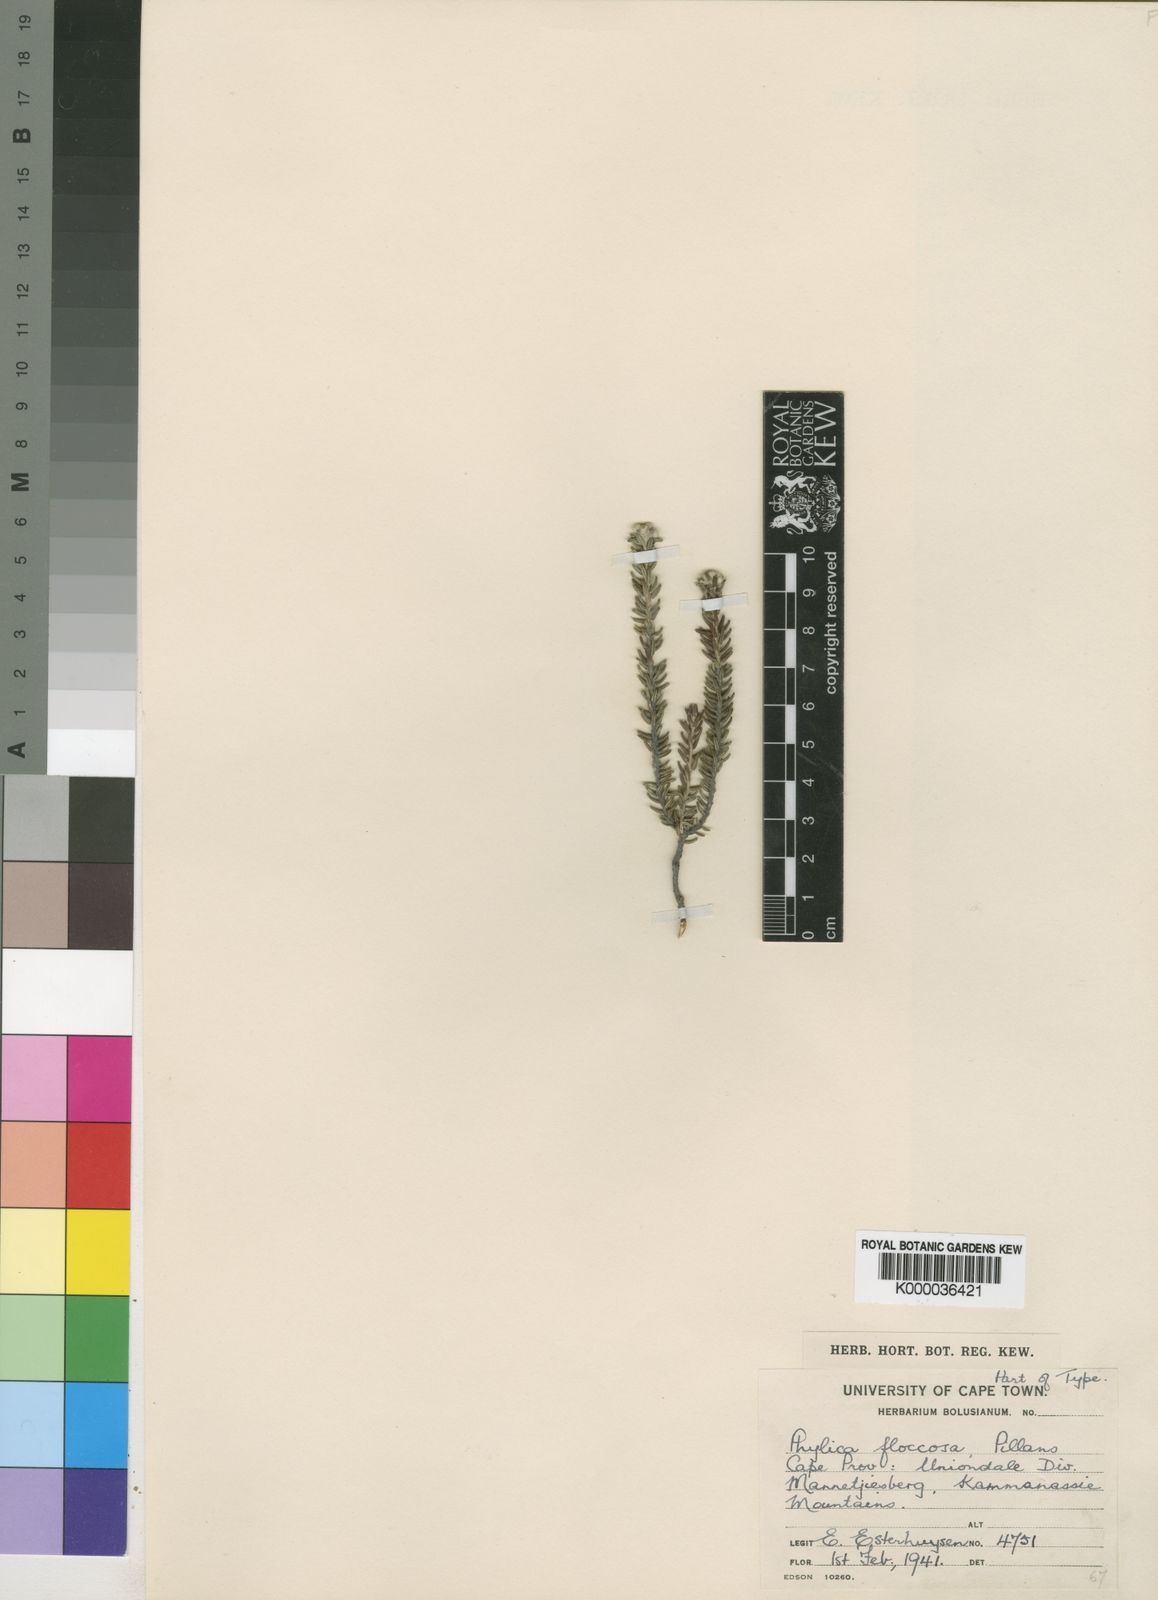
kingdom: Plantae
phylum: Tracheophyta
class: Magnoliopsida
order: Rosales
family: Rhamnaceae
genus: Phylica
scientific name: Phylica floccosa
